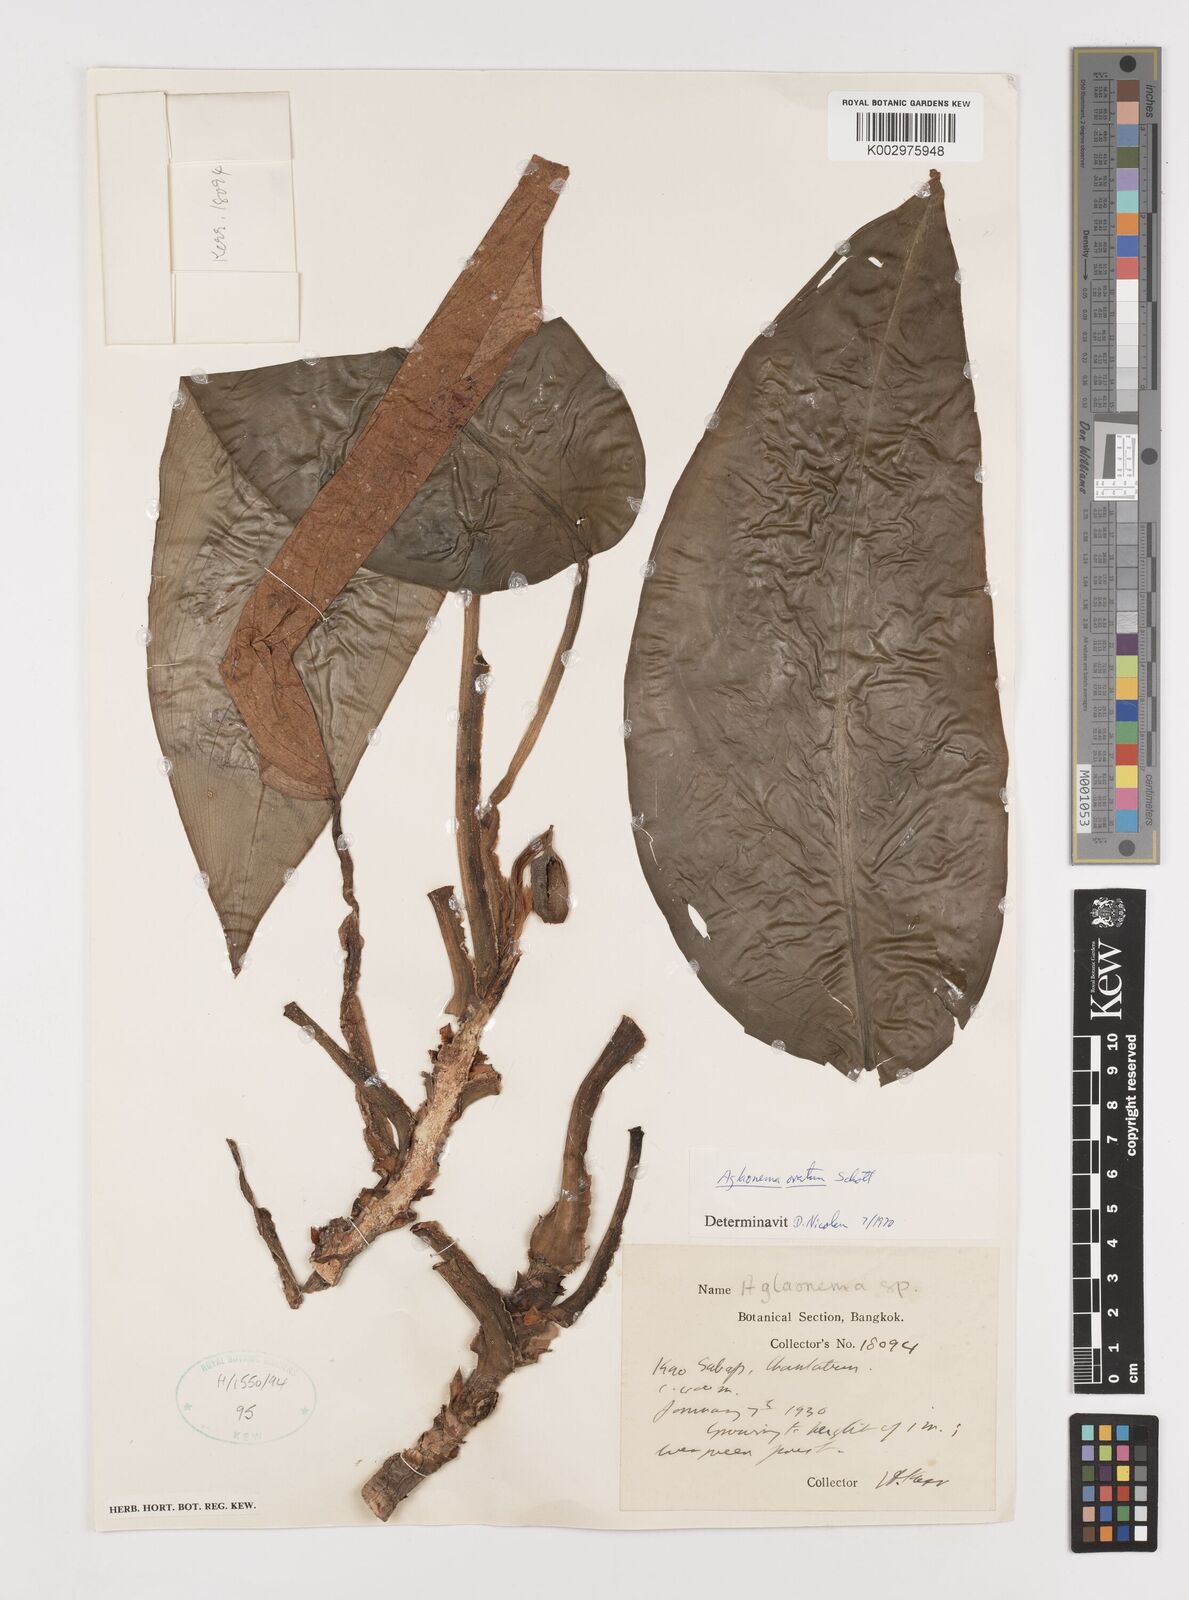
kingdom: Plantae
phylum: Tracheophyta
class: Liliopsida
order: Alismatales
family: Araceae
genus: Aglaonema
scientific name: Aglaonema ovatum
